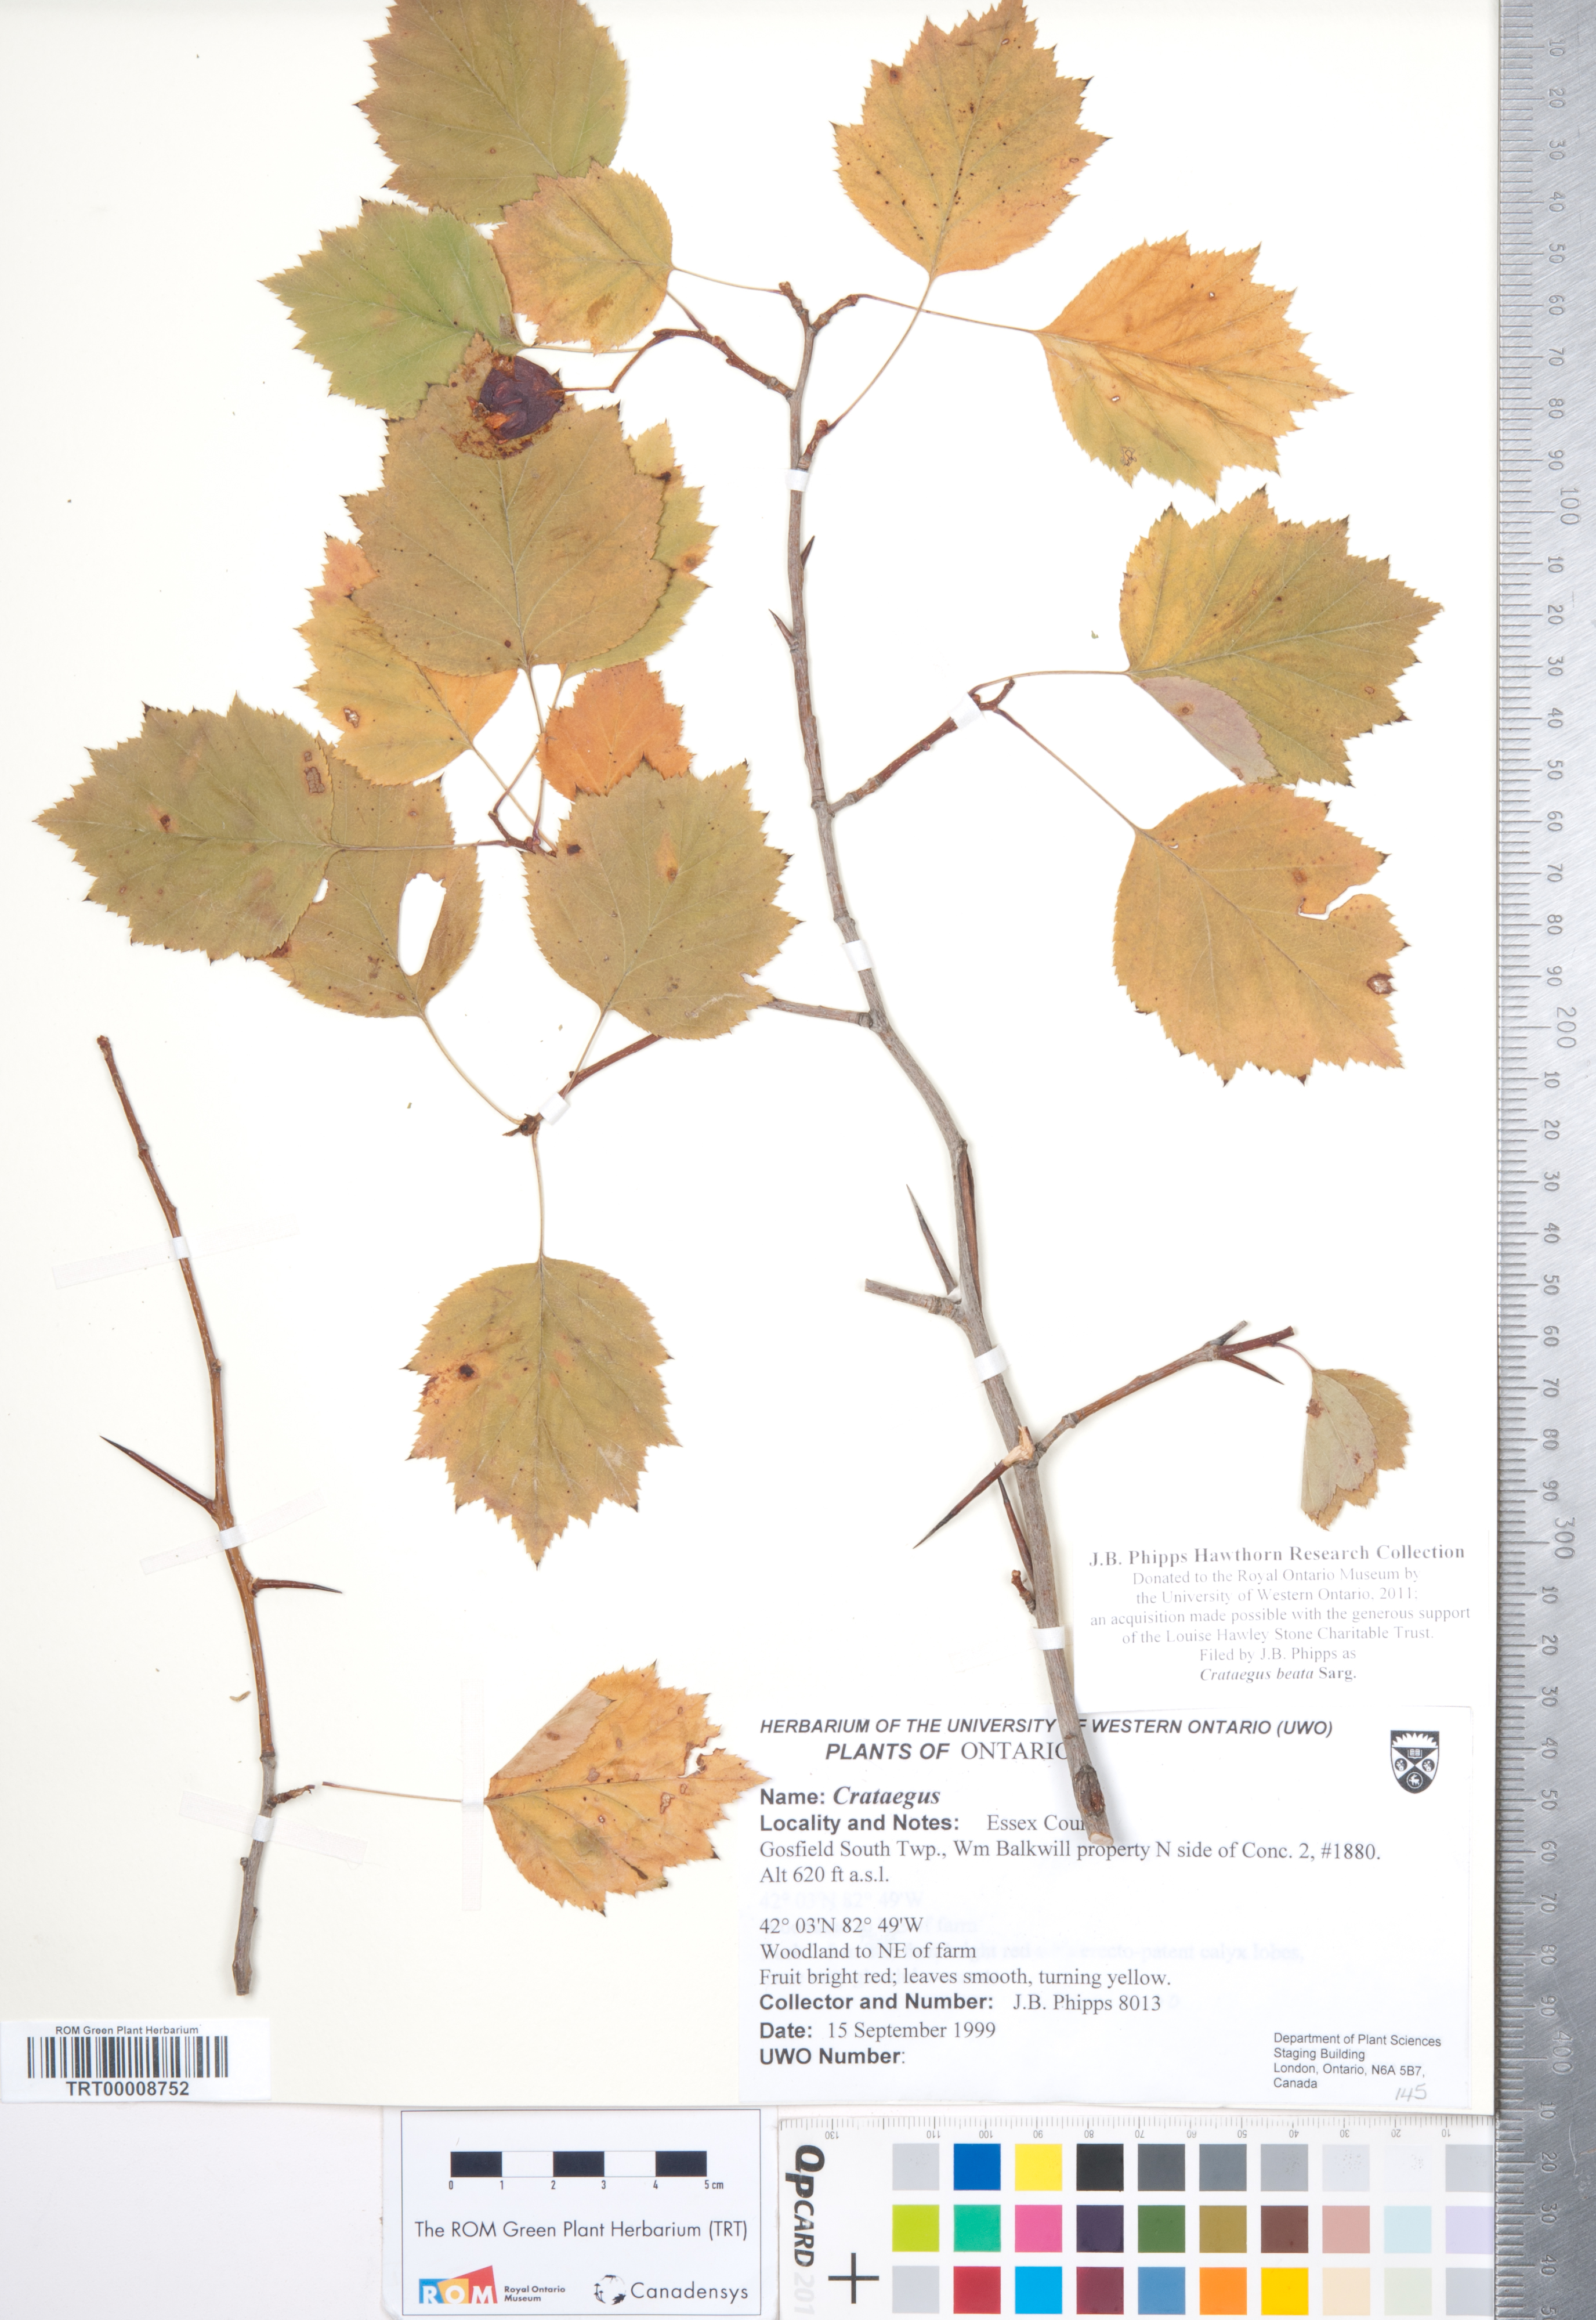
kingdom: Plantae
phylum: Tracheophyta
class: Magnoliopsida
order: Rosales
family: Rosaceae
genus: Crataegus
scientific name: Crataegus beata
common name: Dunbar's hawthorn
